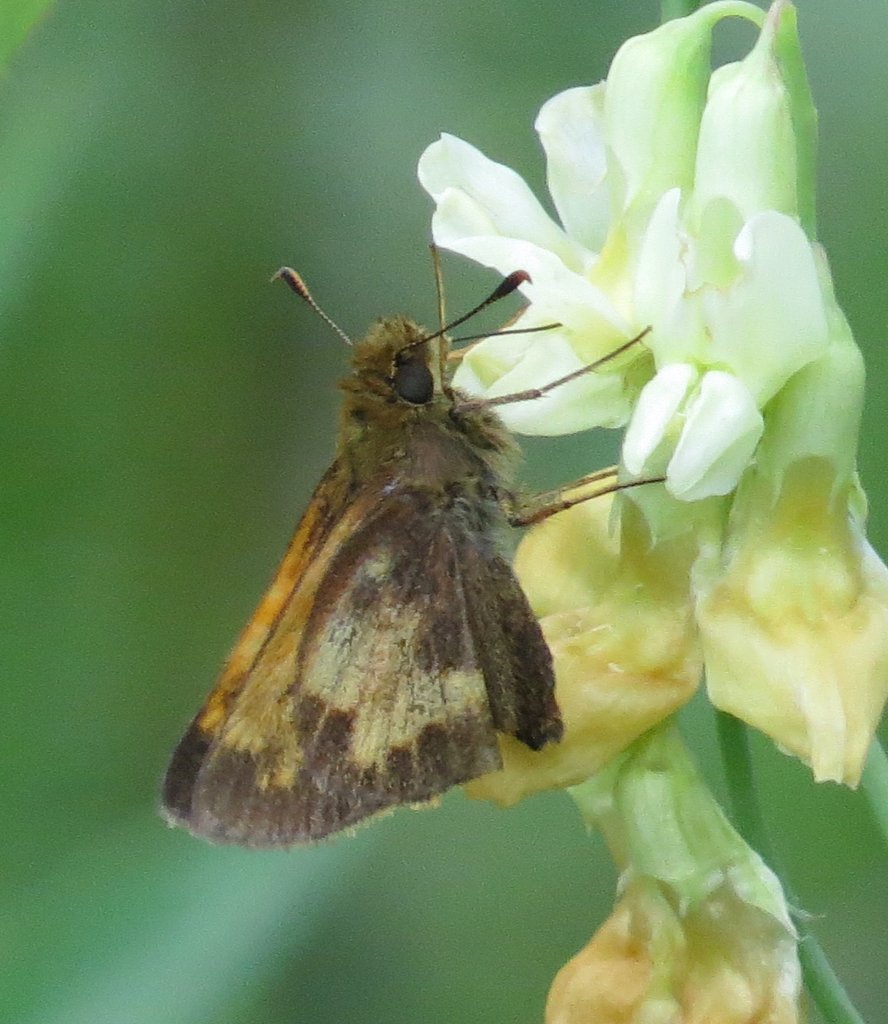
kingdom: Animalia
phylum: Arthropoda
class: Insecta
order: Lepidoptera
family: Hesperiidae
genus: Lon
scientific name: Lon hobomok
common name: Hobomok Skipper
